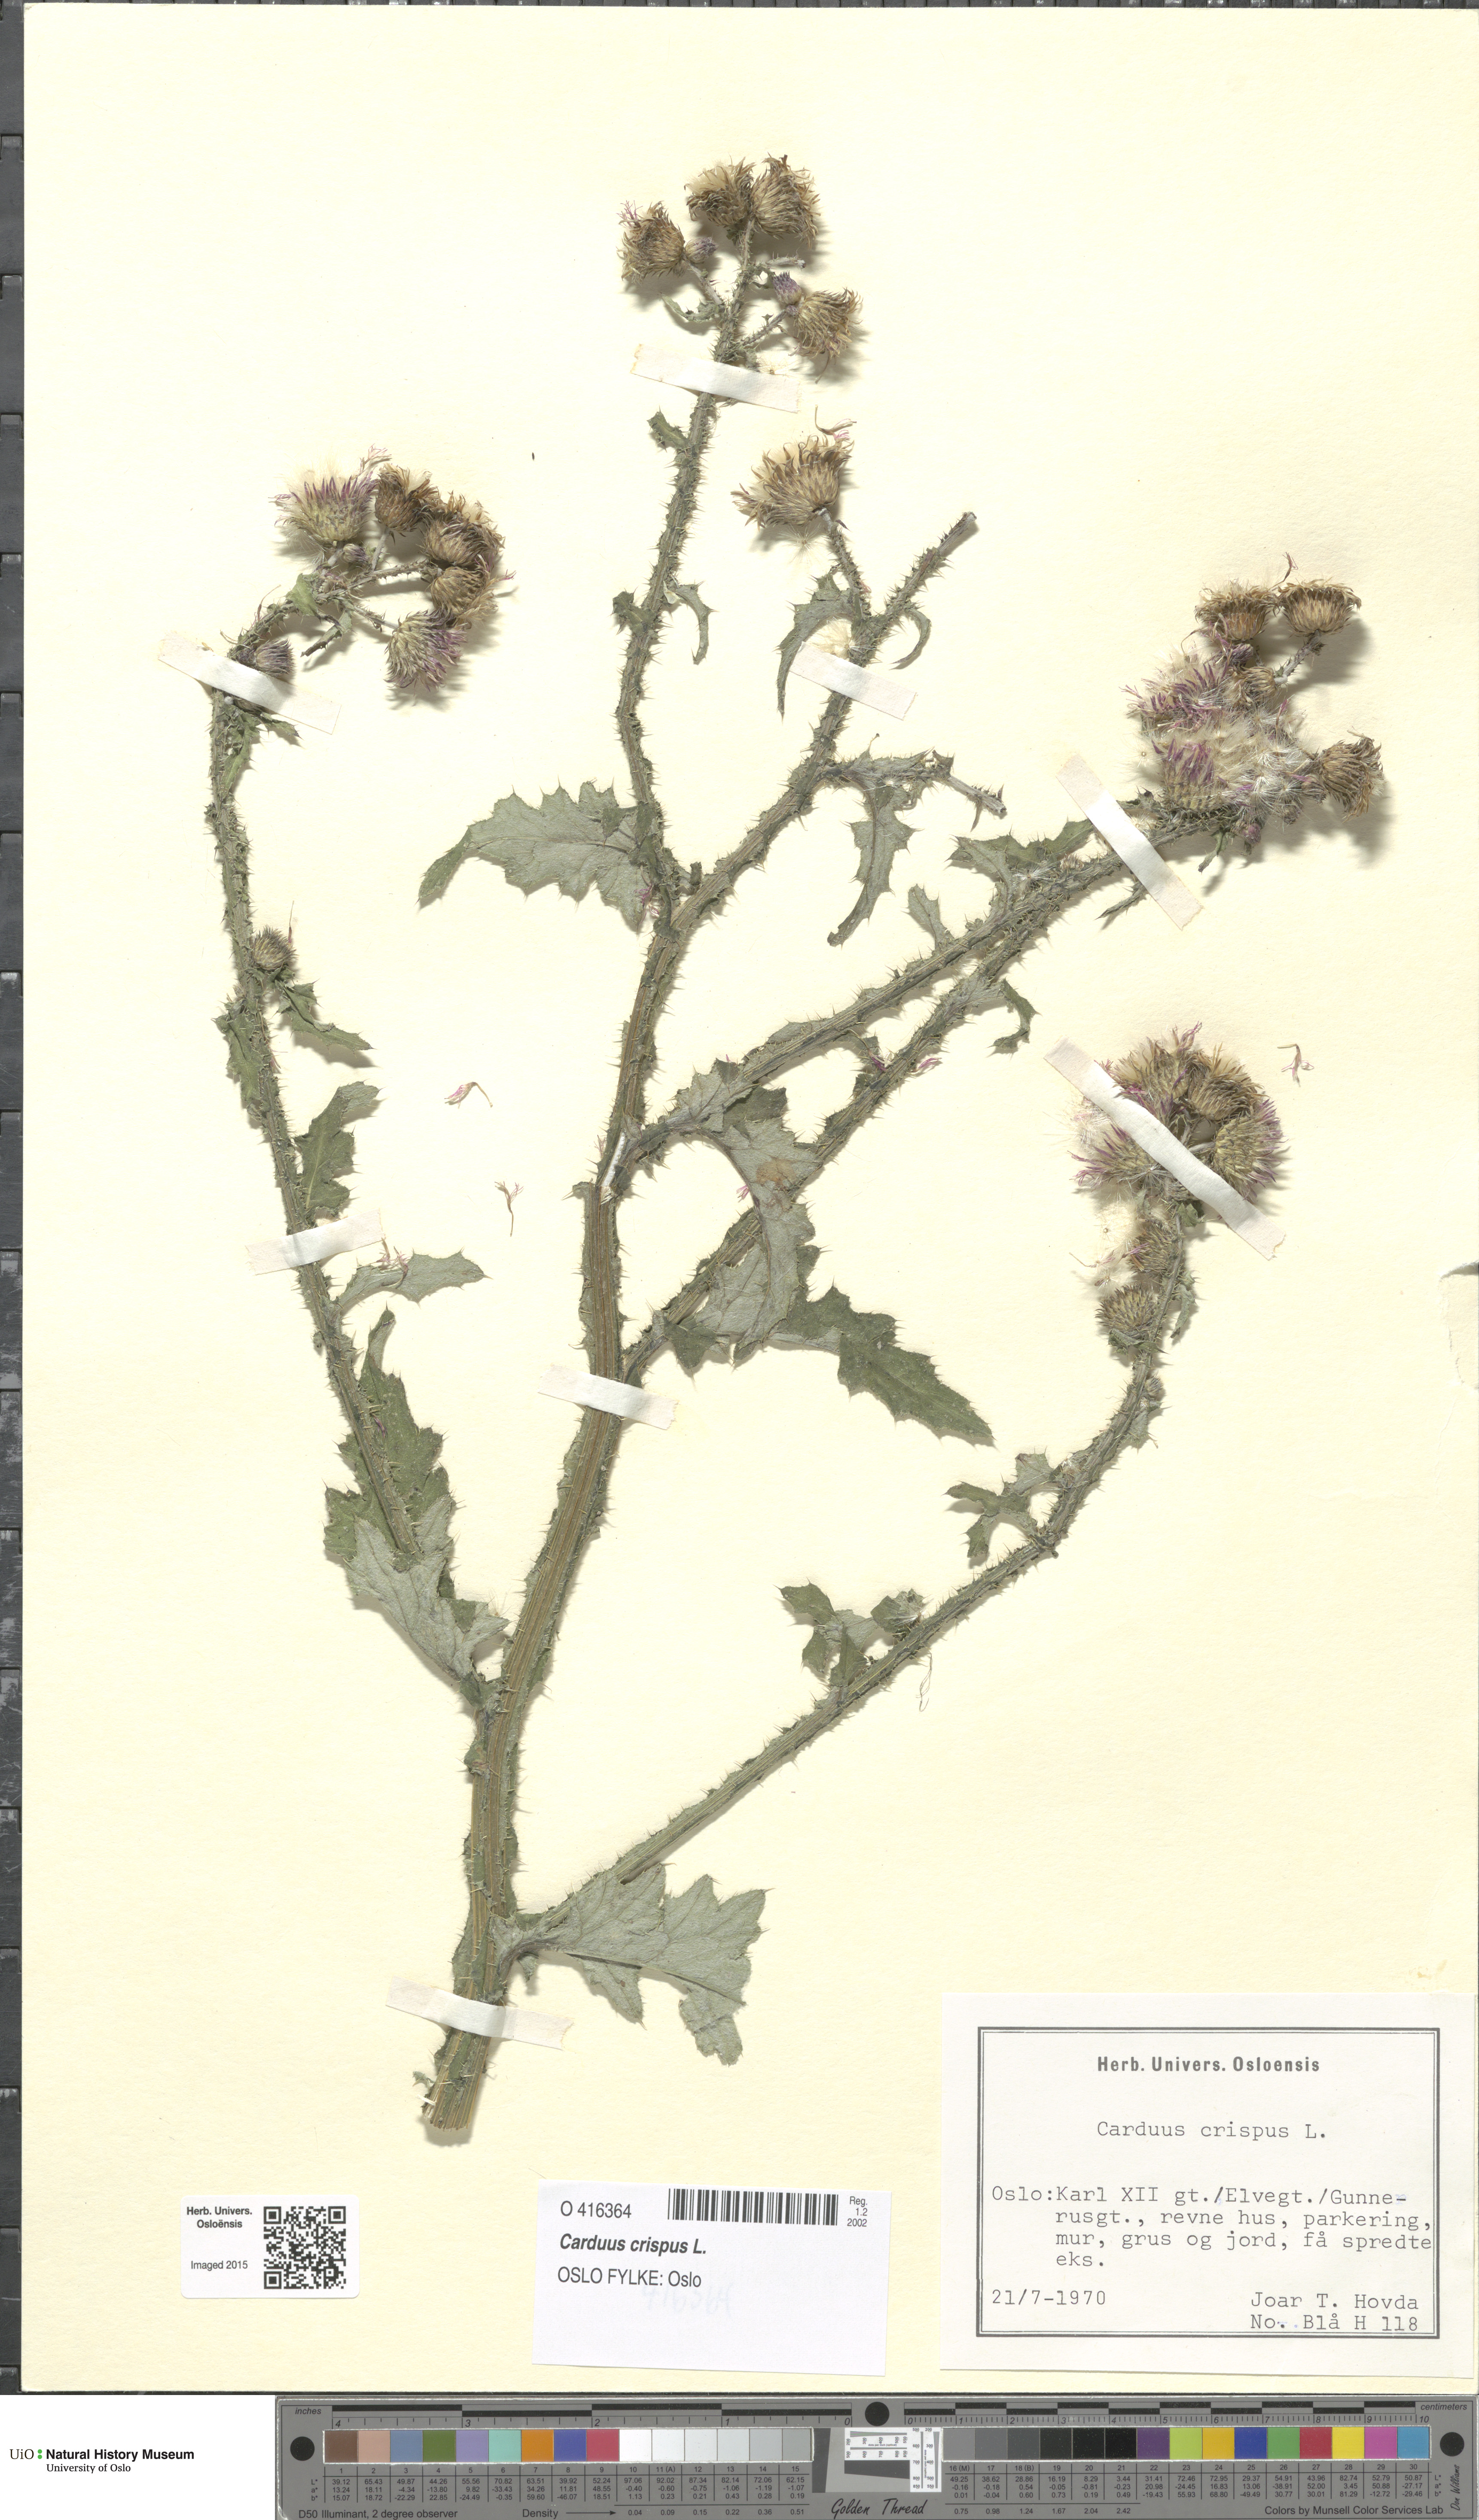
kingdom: Plantae
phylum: Tracheophyta
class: Magnoliopsida
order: Asterales
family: Asteraceae
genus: Carduus
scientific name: Carduus crispus
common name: Welted thistle
